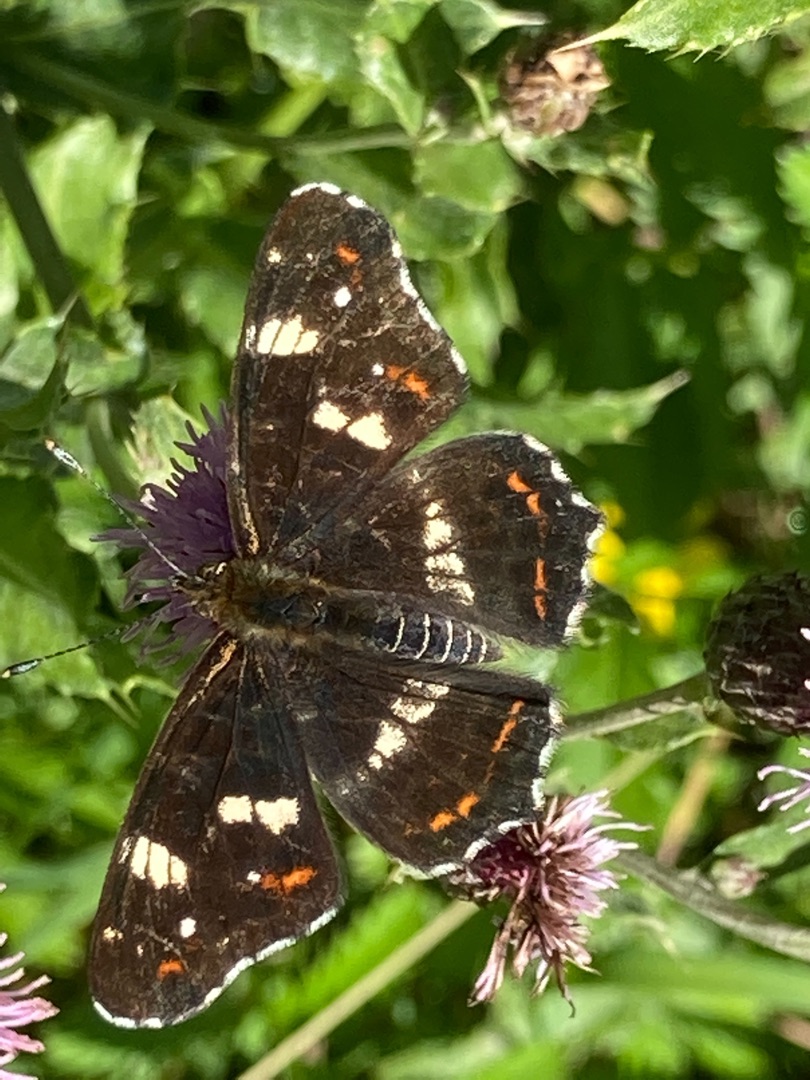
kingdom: Animalia
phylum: Arthropoda
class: Insecta
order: Lepidoptera
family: Nymphalidae
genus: Araschnia
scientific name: Araschnia levana
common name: Nældesommerfugl
